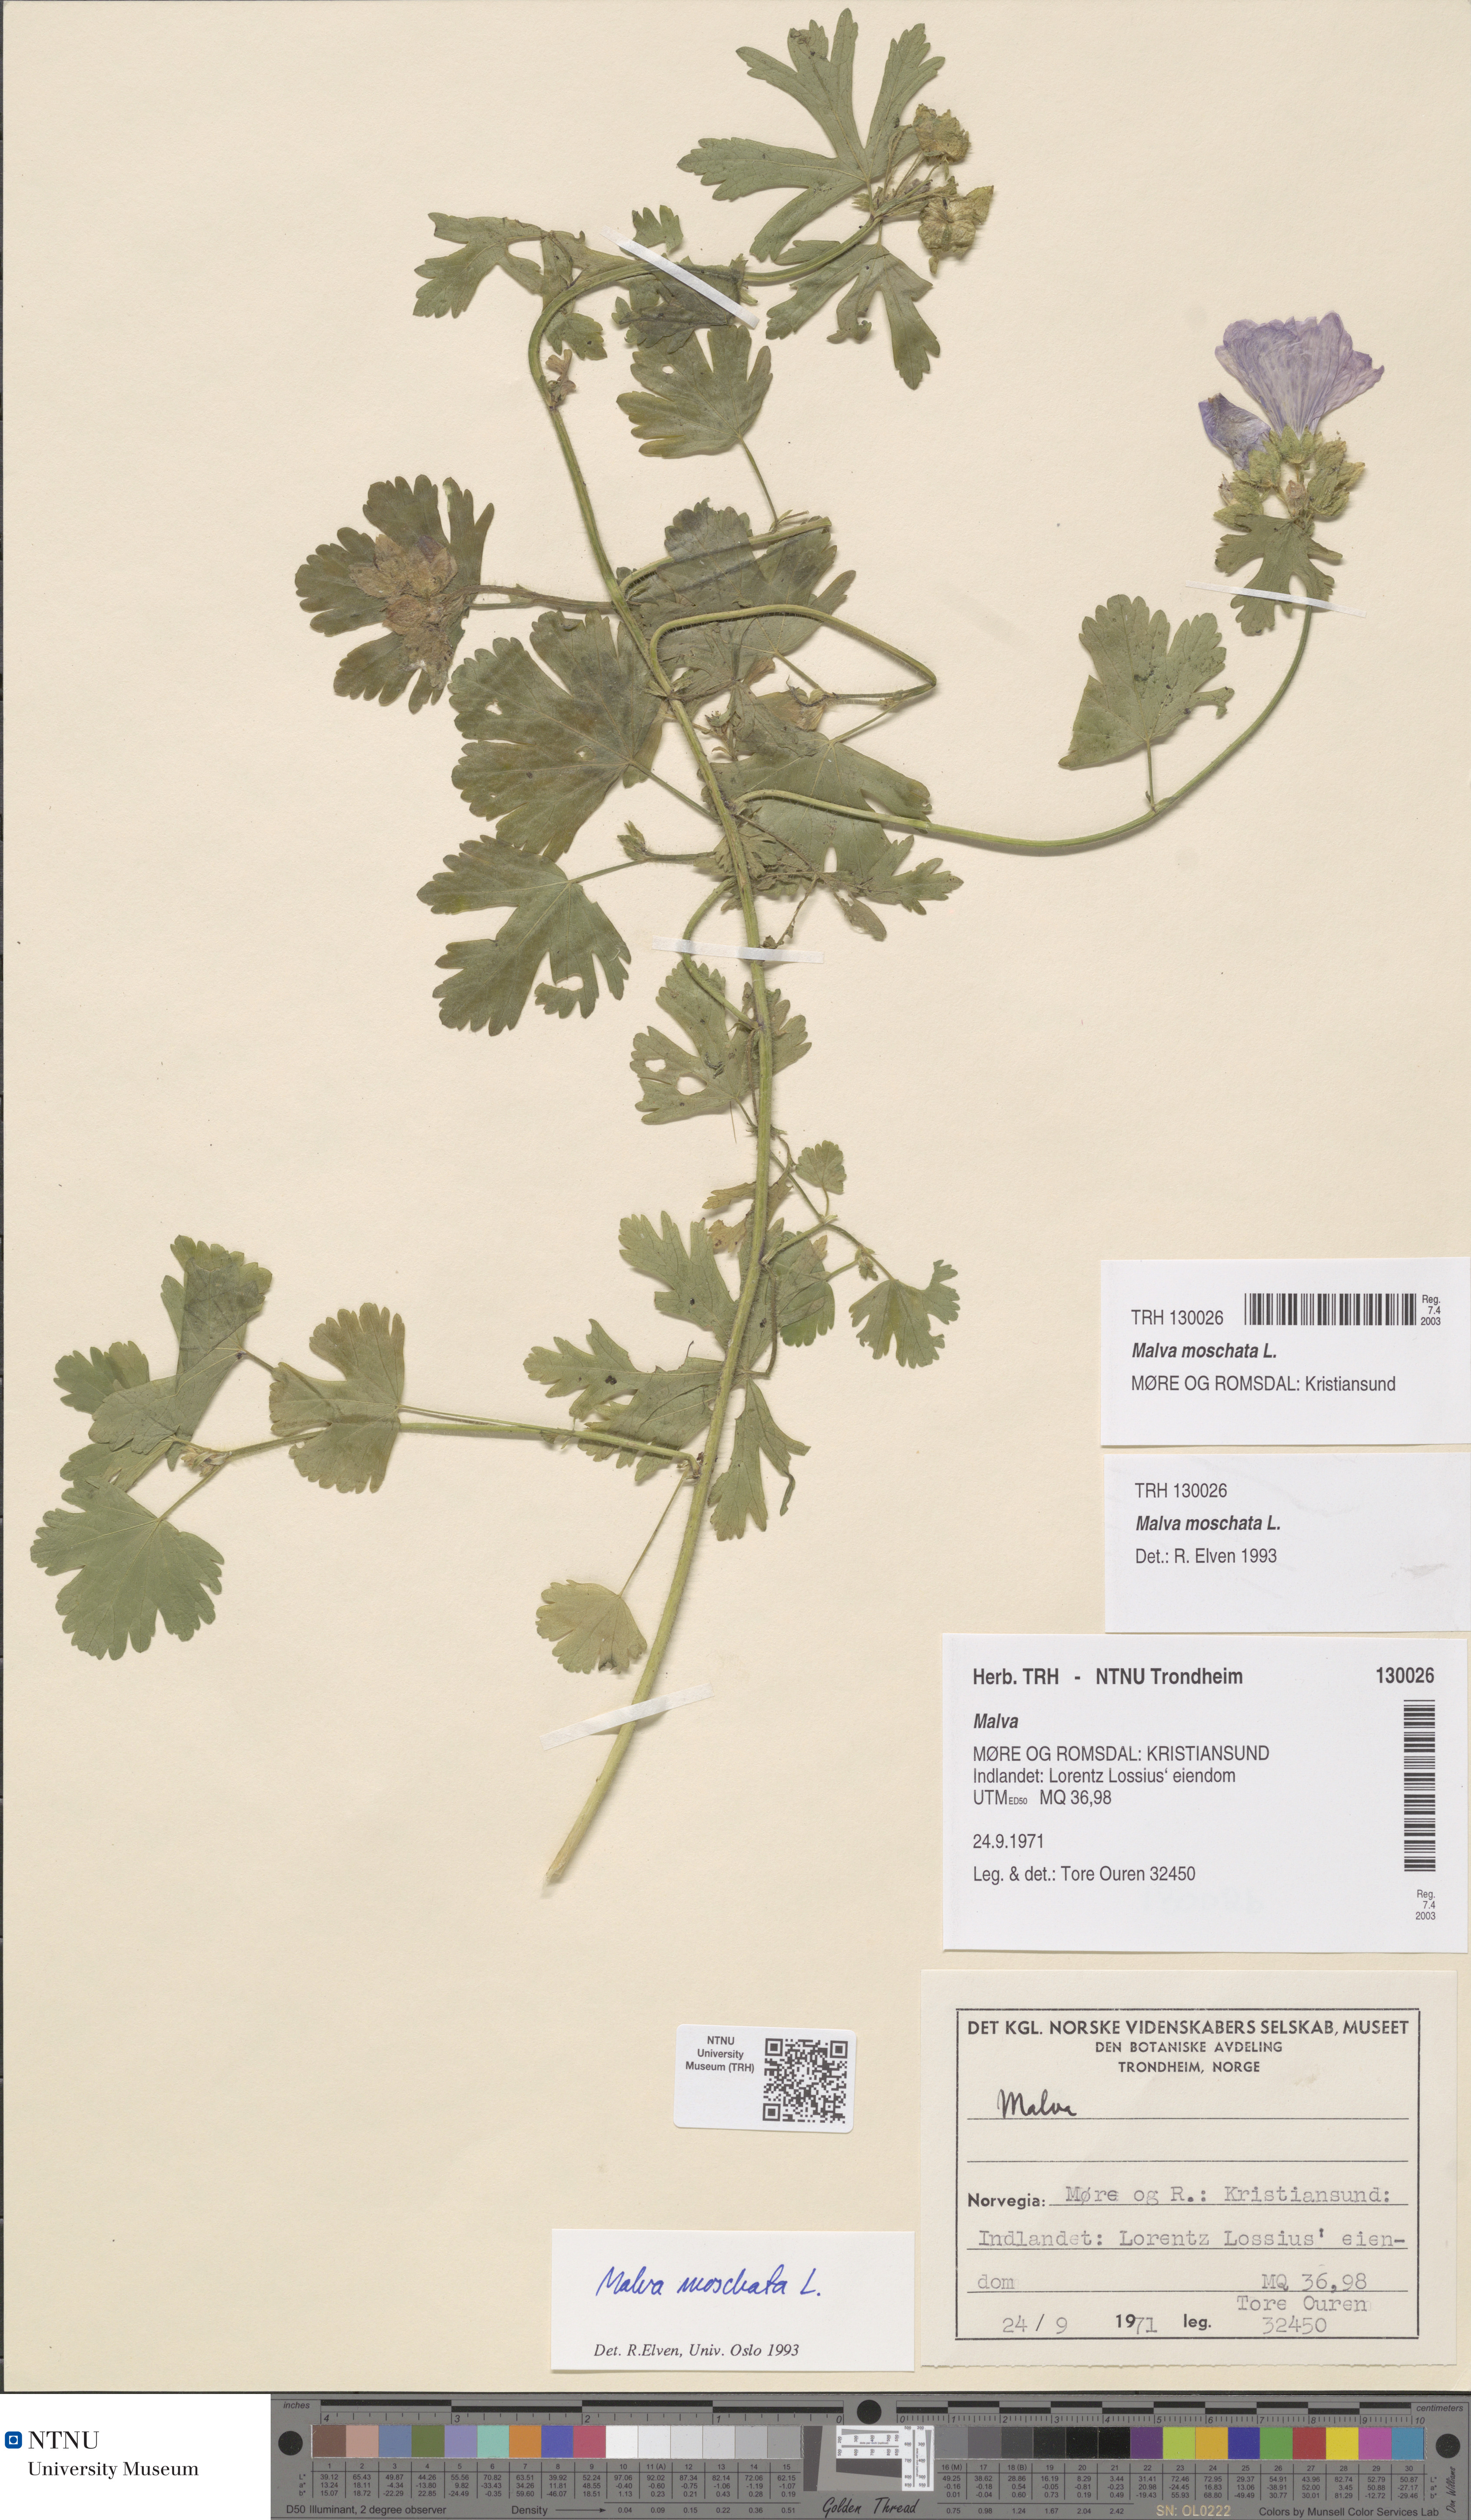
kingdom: Plantae
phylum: Tracheophyta
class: Magnoliopsida
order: Malvales
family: Malvaceae
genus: Malva
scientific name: Malva moschata
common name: Musk mallow
